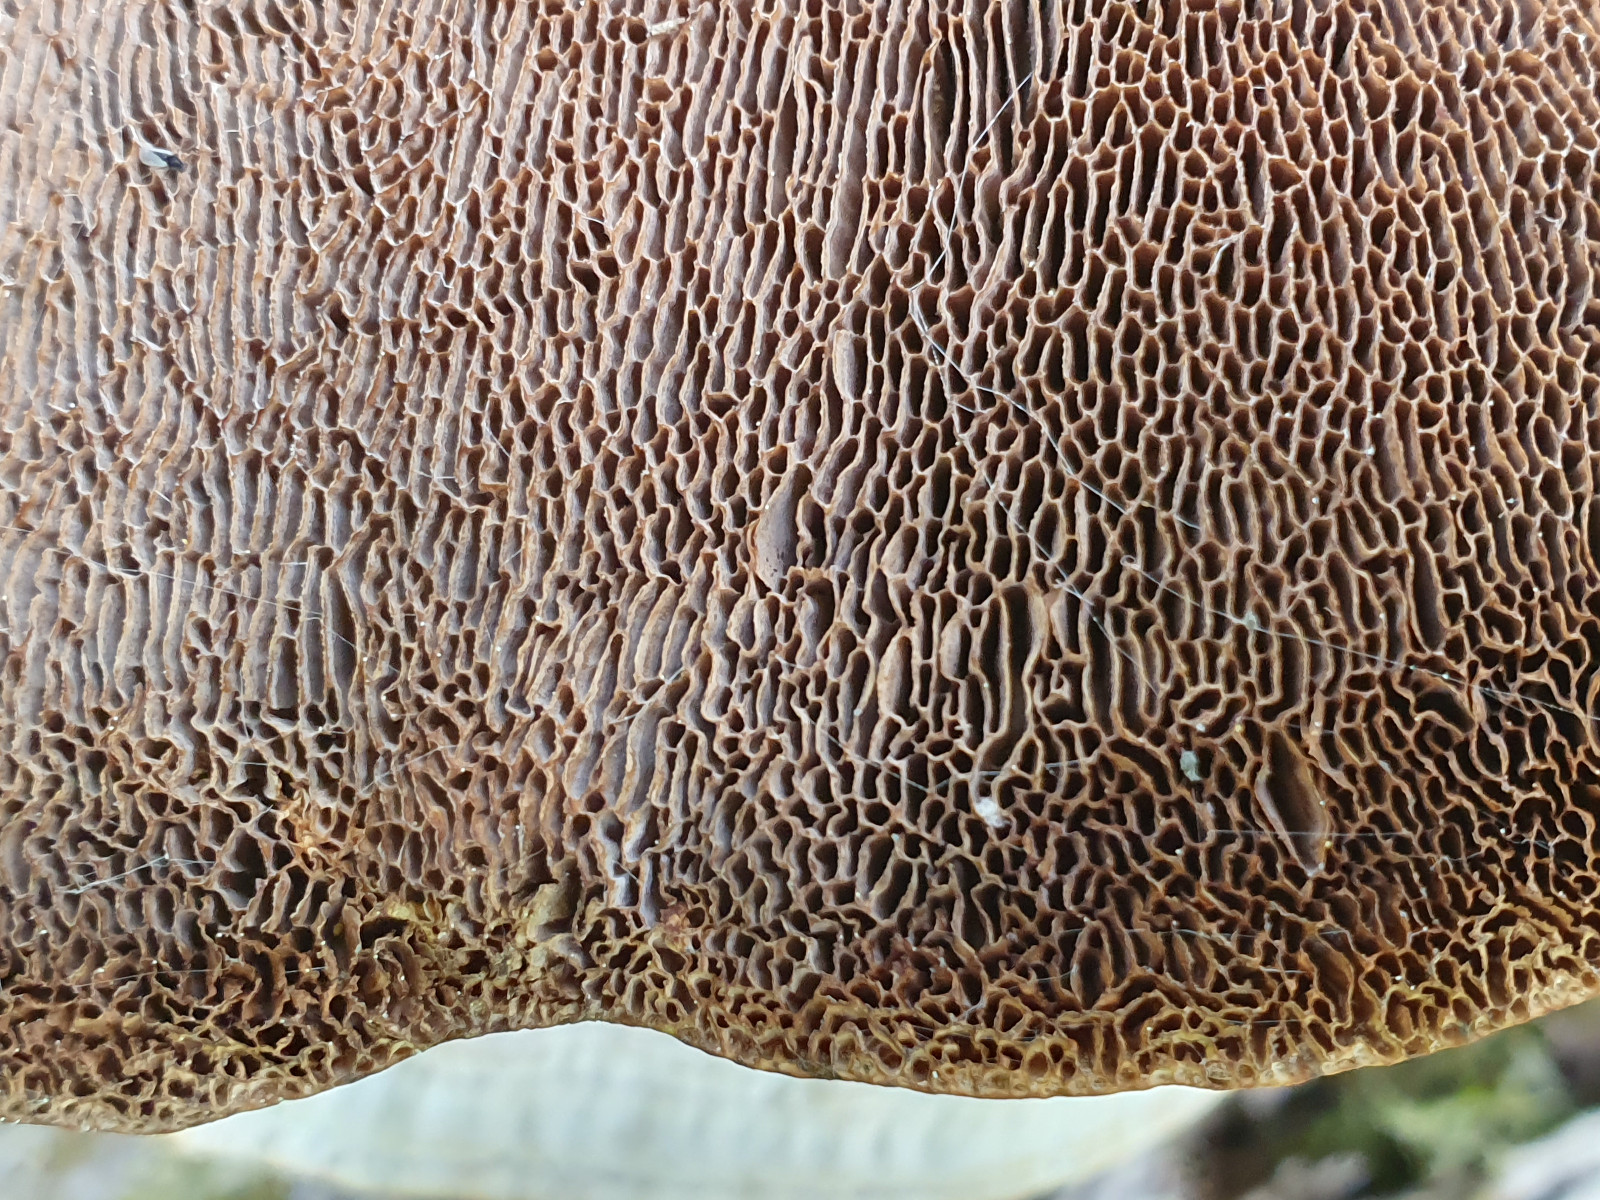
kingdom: Fungi
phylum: Basidiomycota
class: Agaricomycetes
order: Polyporales
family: Polyporaceae
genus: Daedaleopsis
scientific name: Daedaleopsis confragosa
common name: rødmende læderporesvamp
